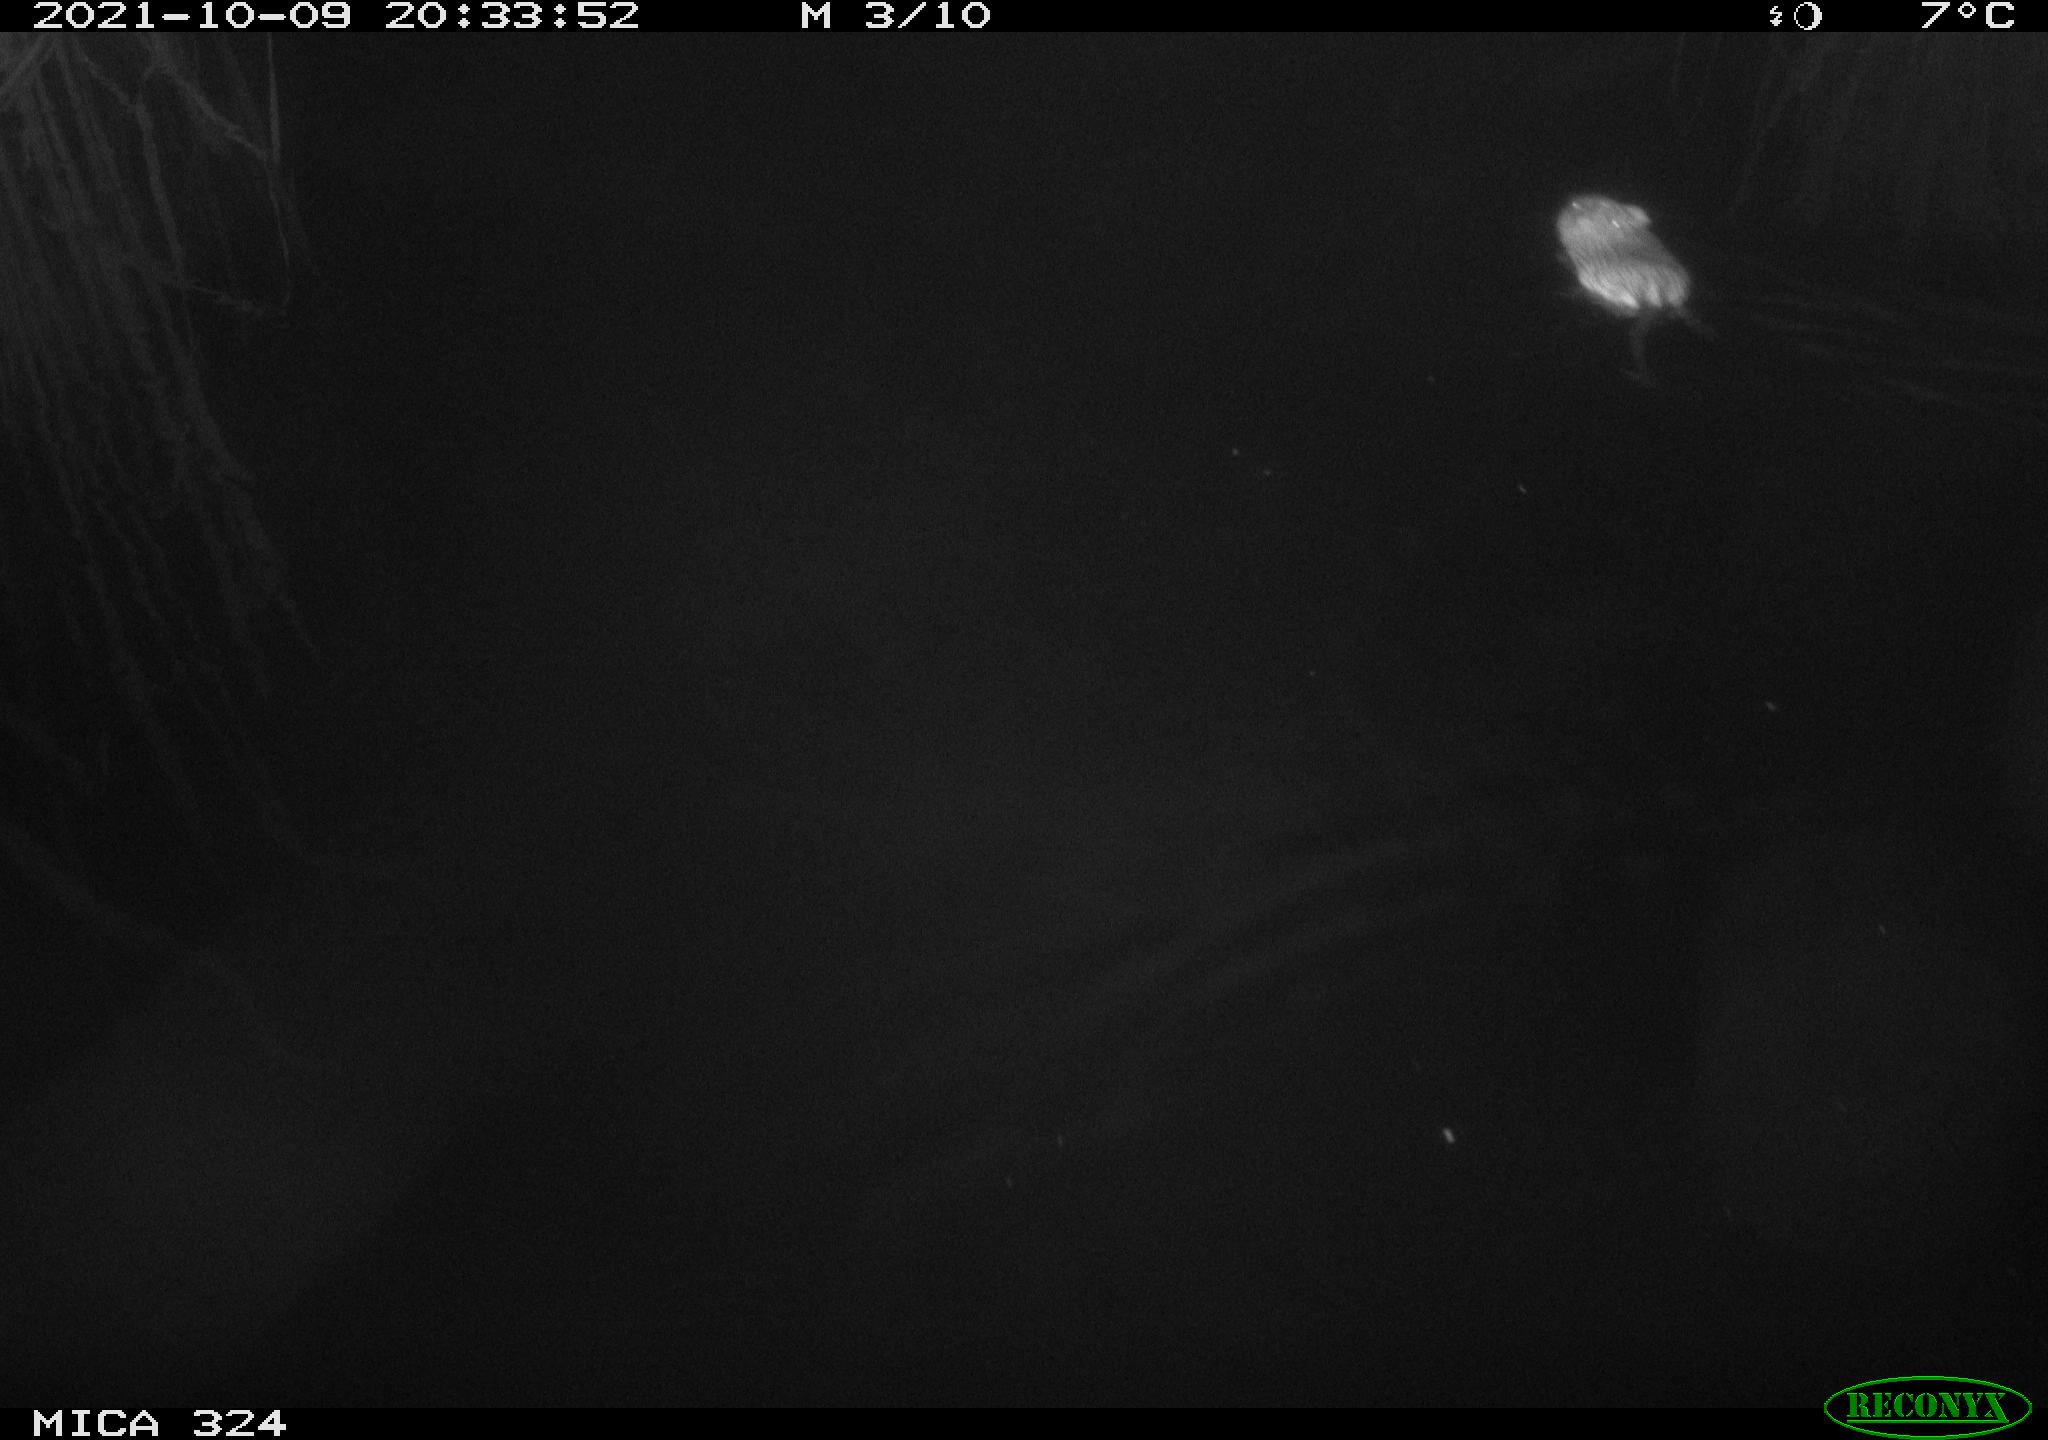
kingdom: Animalia
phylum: Chordata
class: Mammalia
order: Rodentia
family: Cricetidae
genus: Ondatra
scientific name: Ondatra zibethicus
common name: Muskrat
